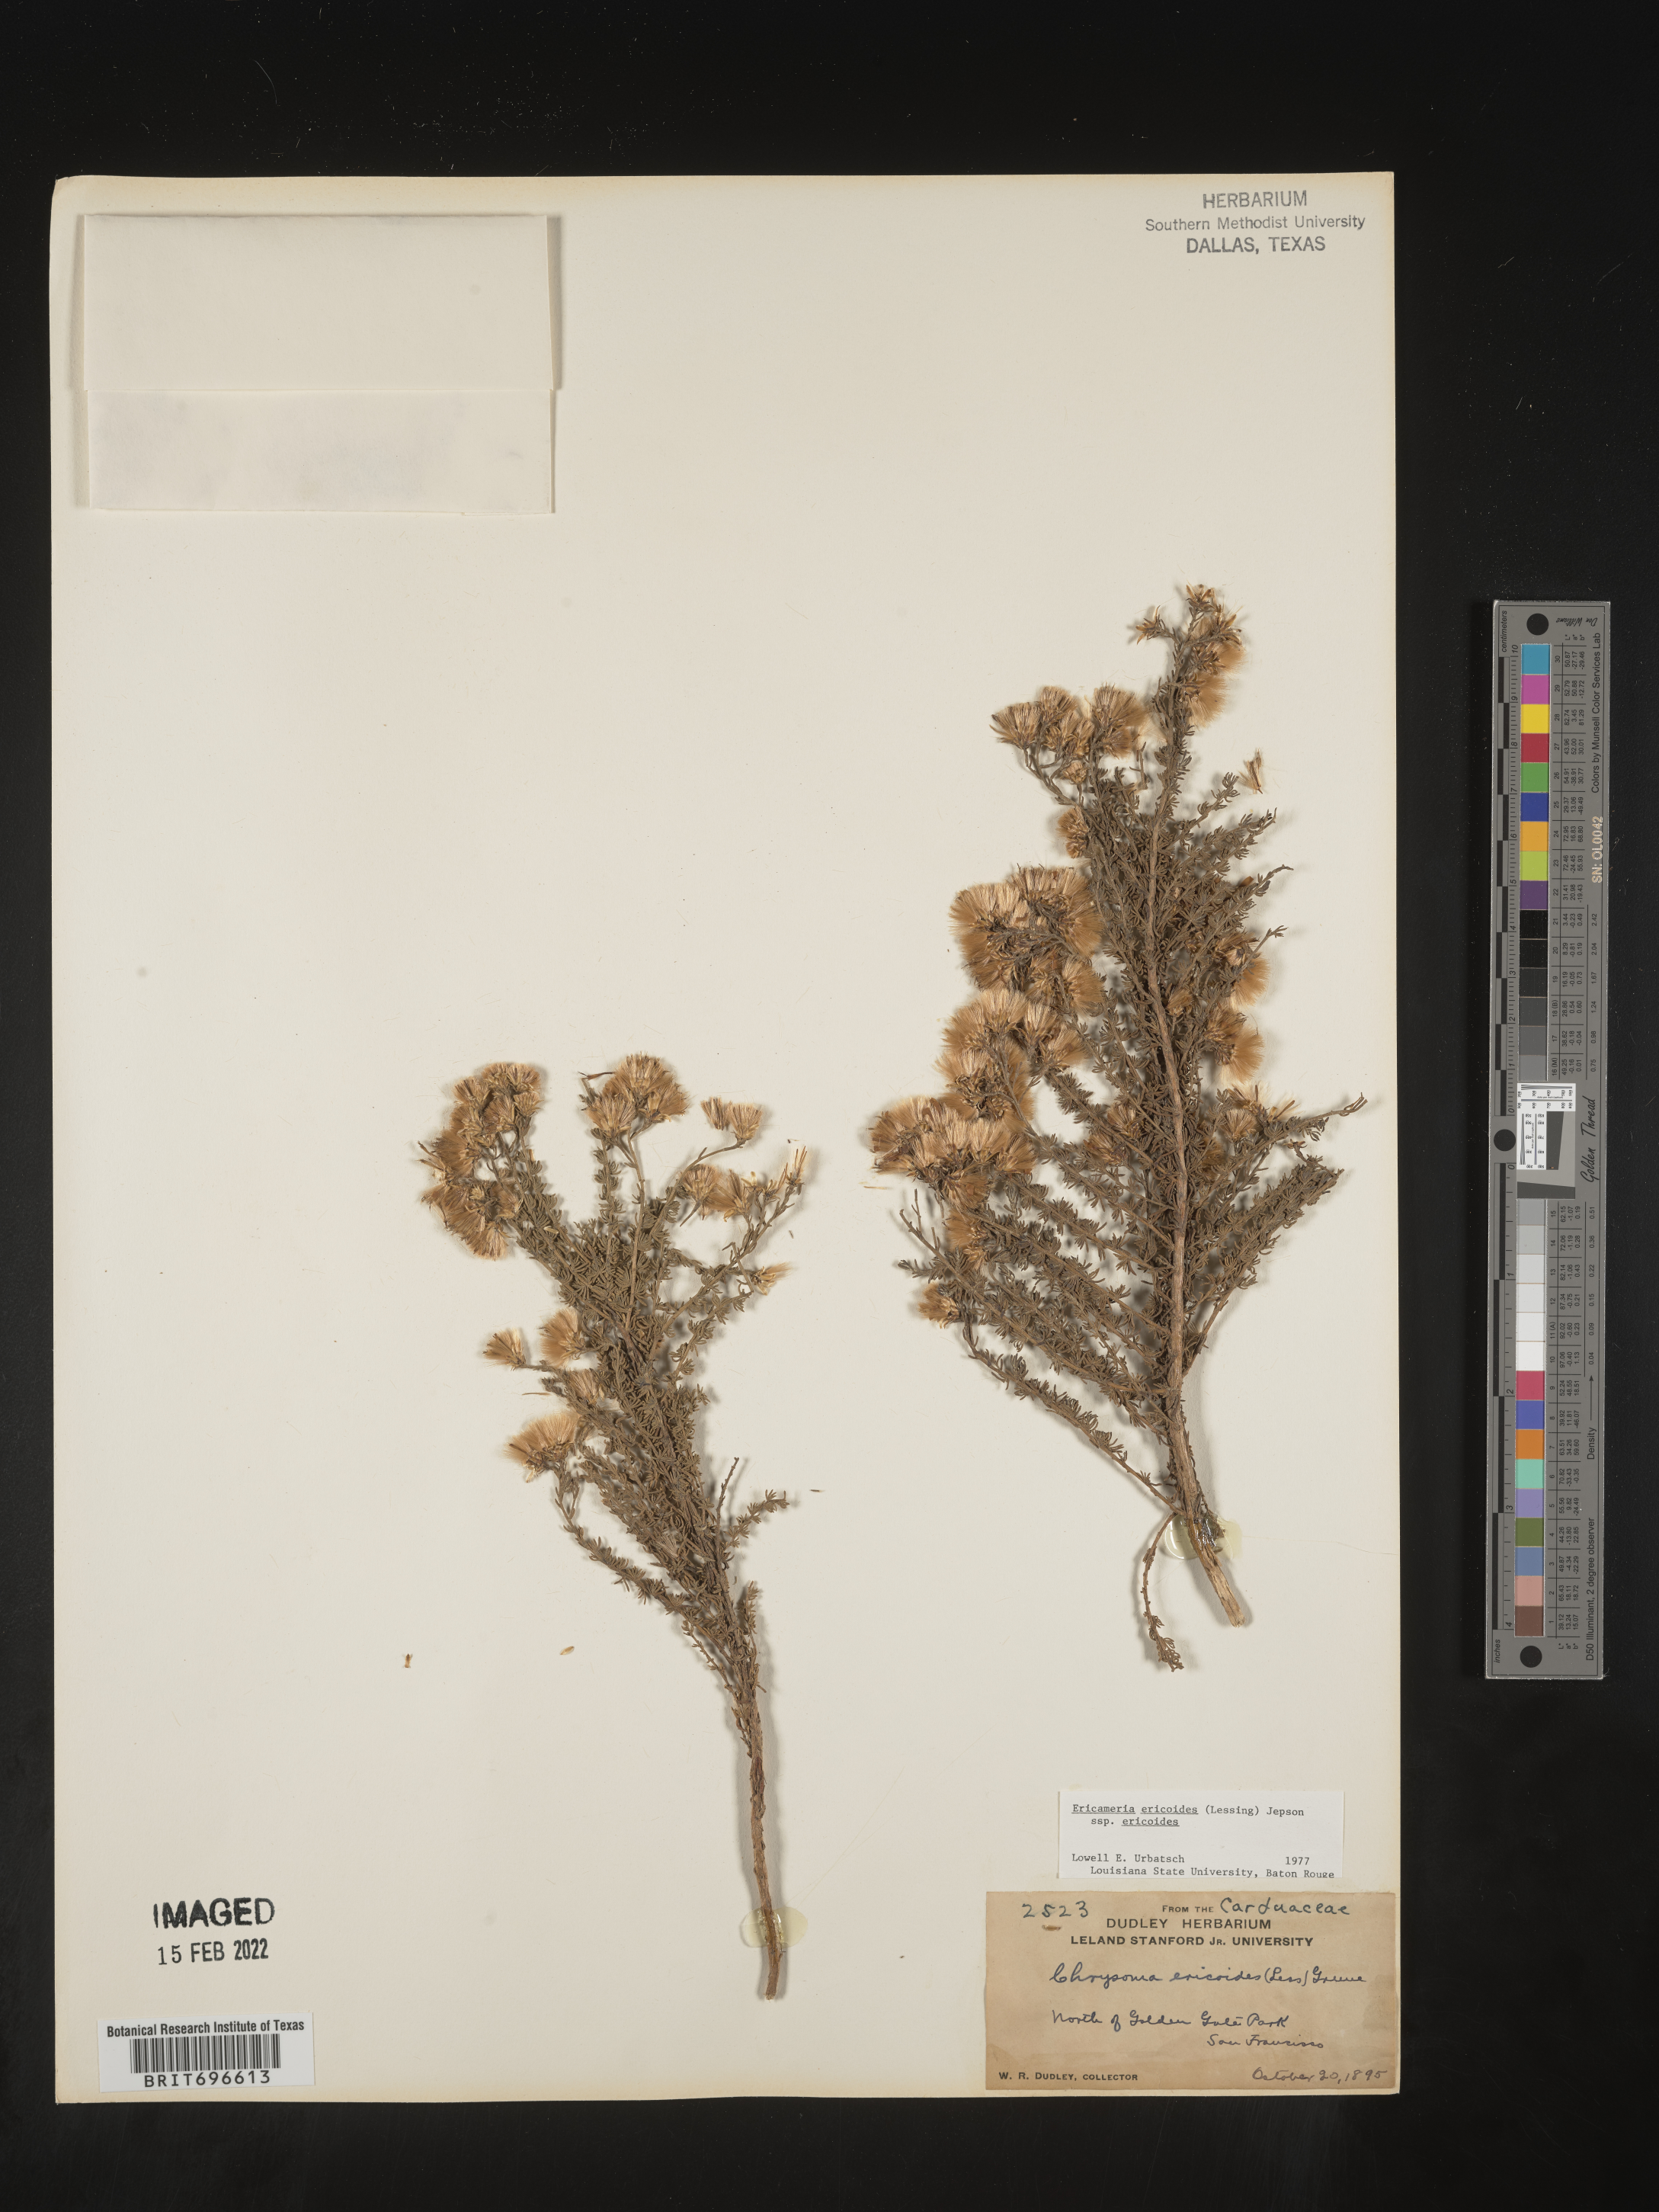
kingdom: Plantae
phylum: Tracheophyta
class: Magnoliopsida
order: Asterales
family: Asteraceae
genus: Ericameria
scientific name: Ericameria ericoides
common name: California goldenbush
